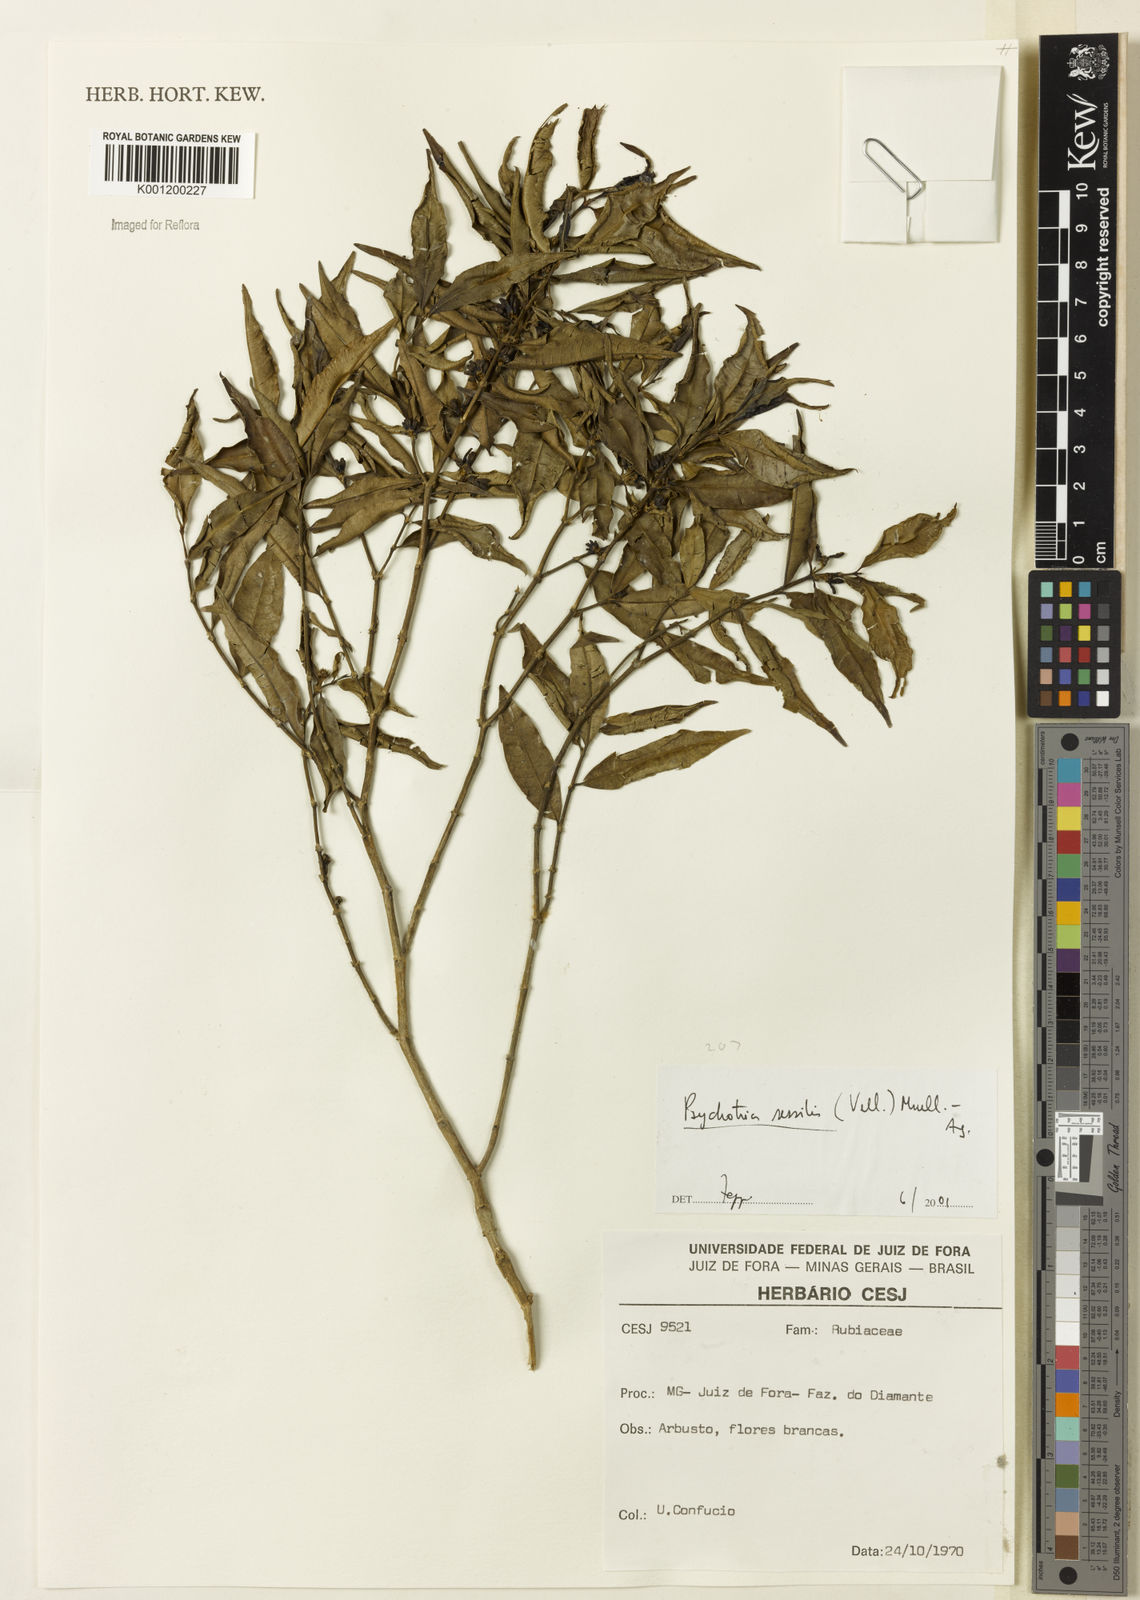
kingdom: Plantae
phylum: Tracheophyta
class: Magnoliopsida
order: Gentianales
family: Rubiaceae
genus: Rudgea
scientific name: Rudgea sessilis
